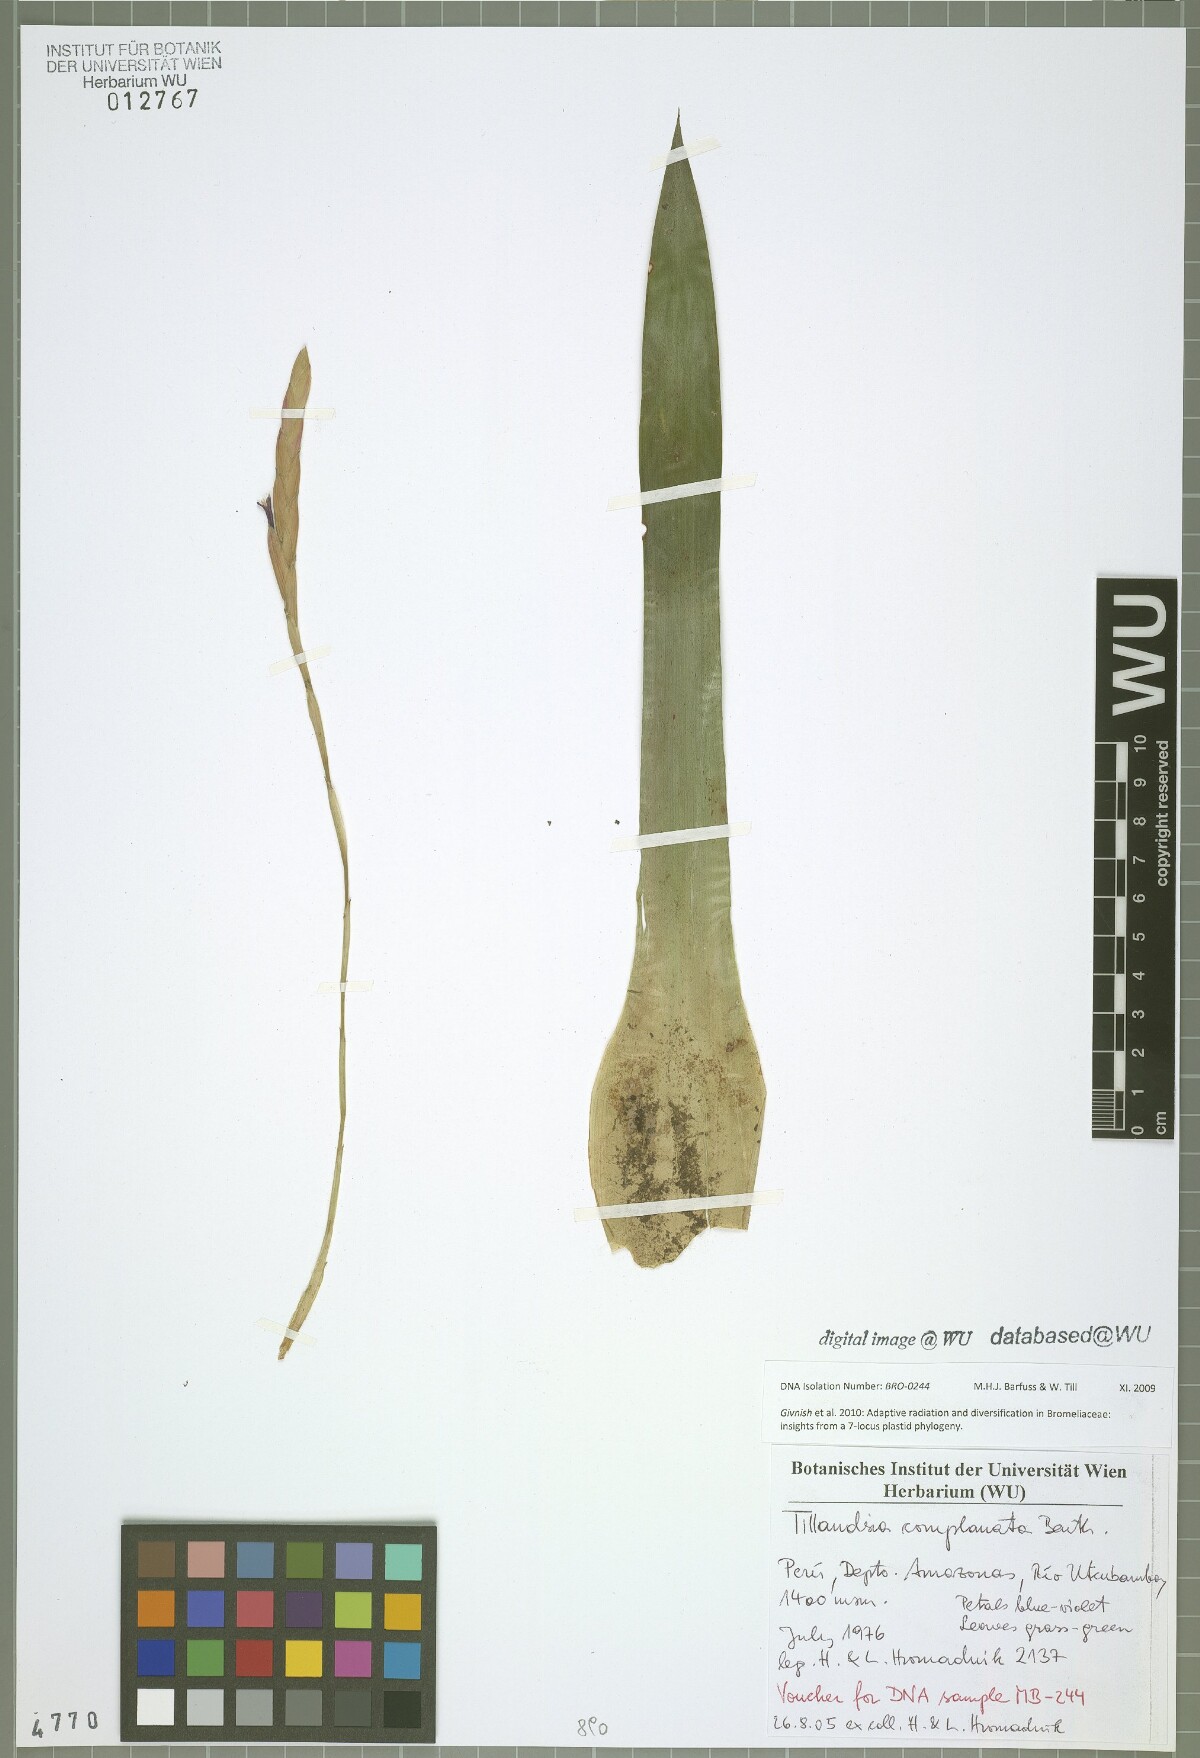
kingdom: Plantae
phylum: Tracheophyta
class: Liliopsida
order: Poales
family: Bromeliaceae
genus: Tillandsia
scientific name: Tillandsia complanata
